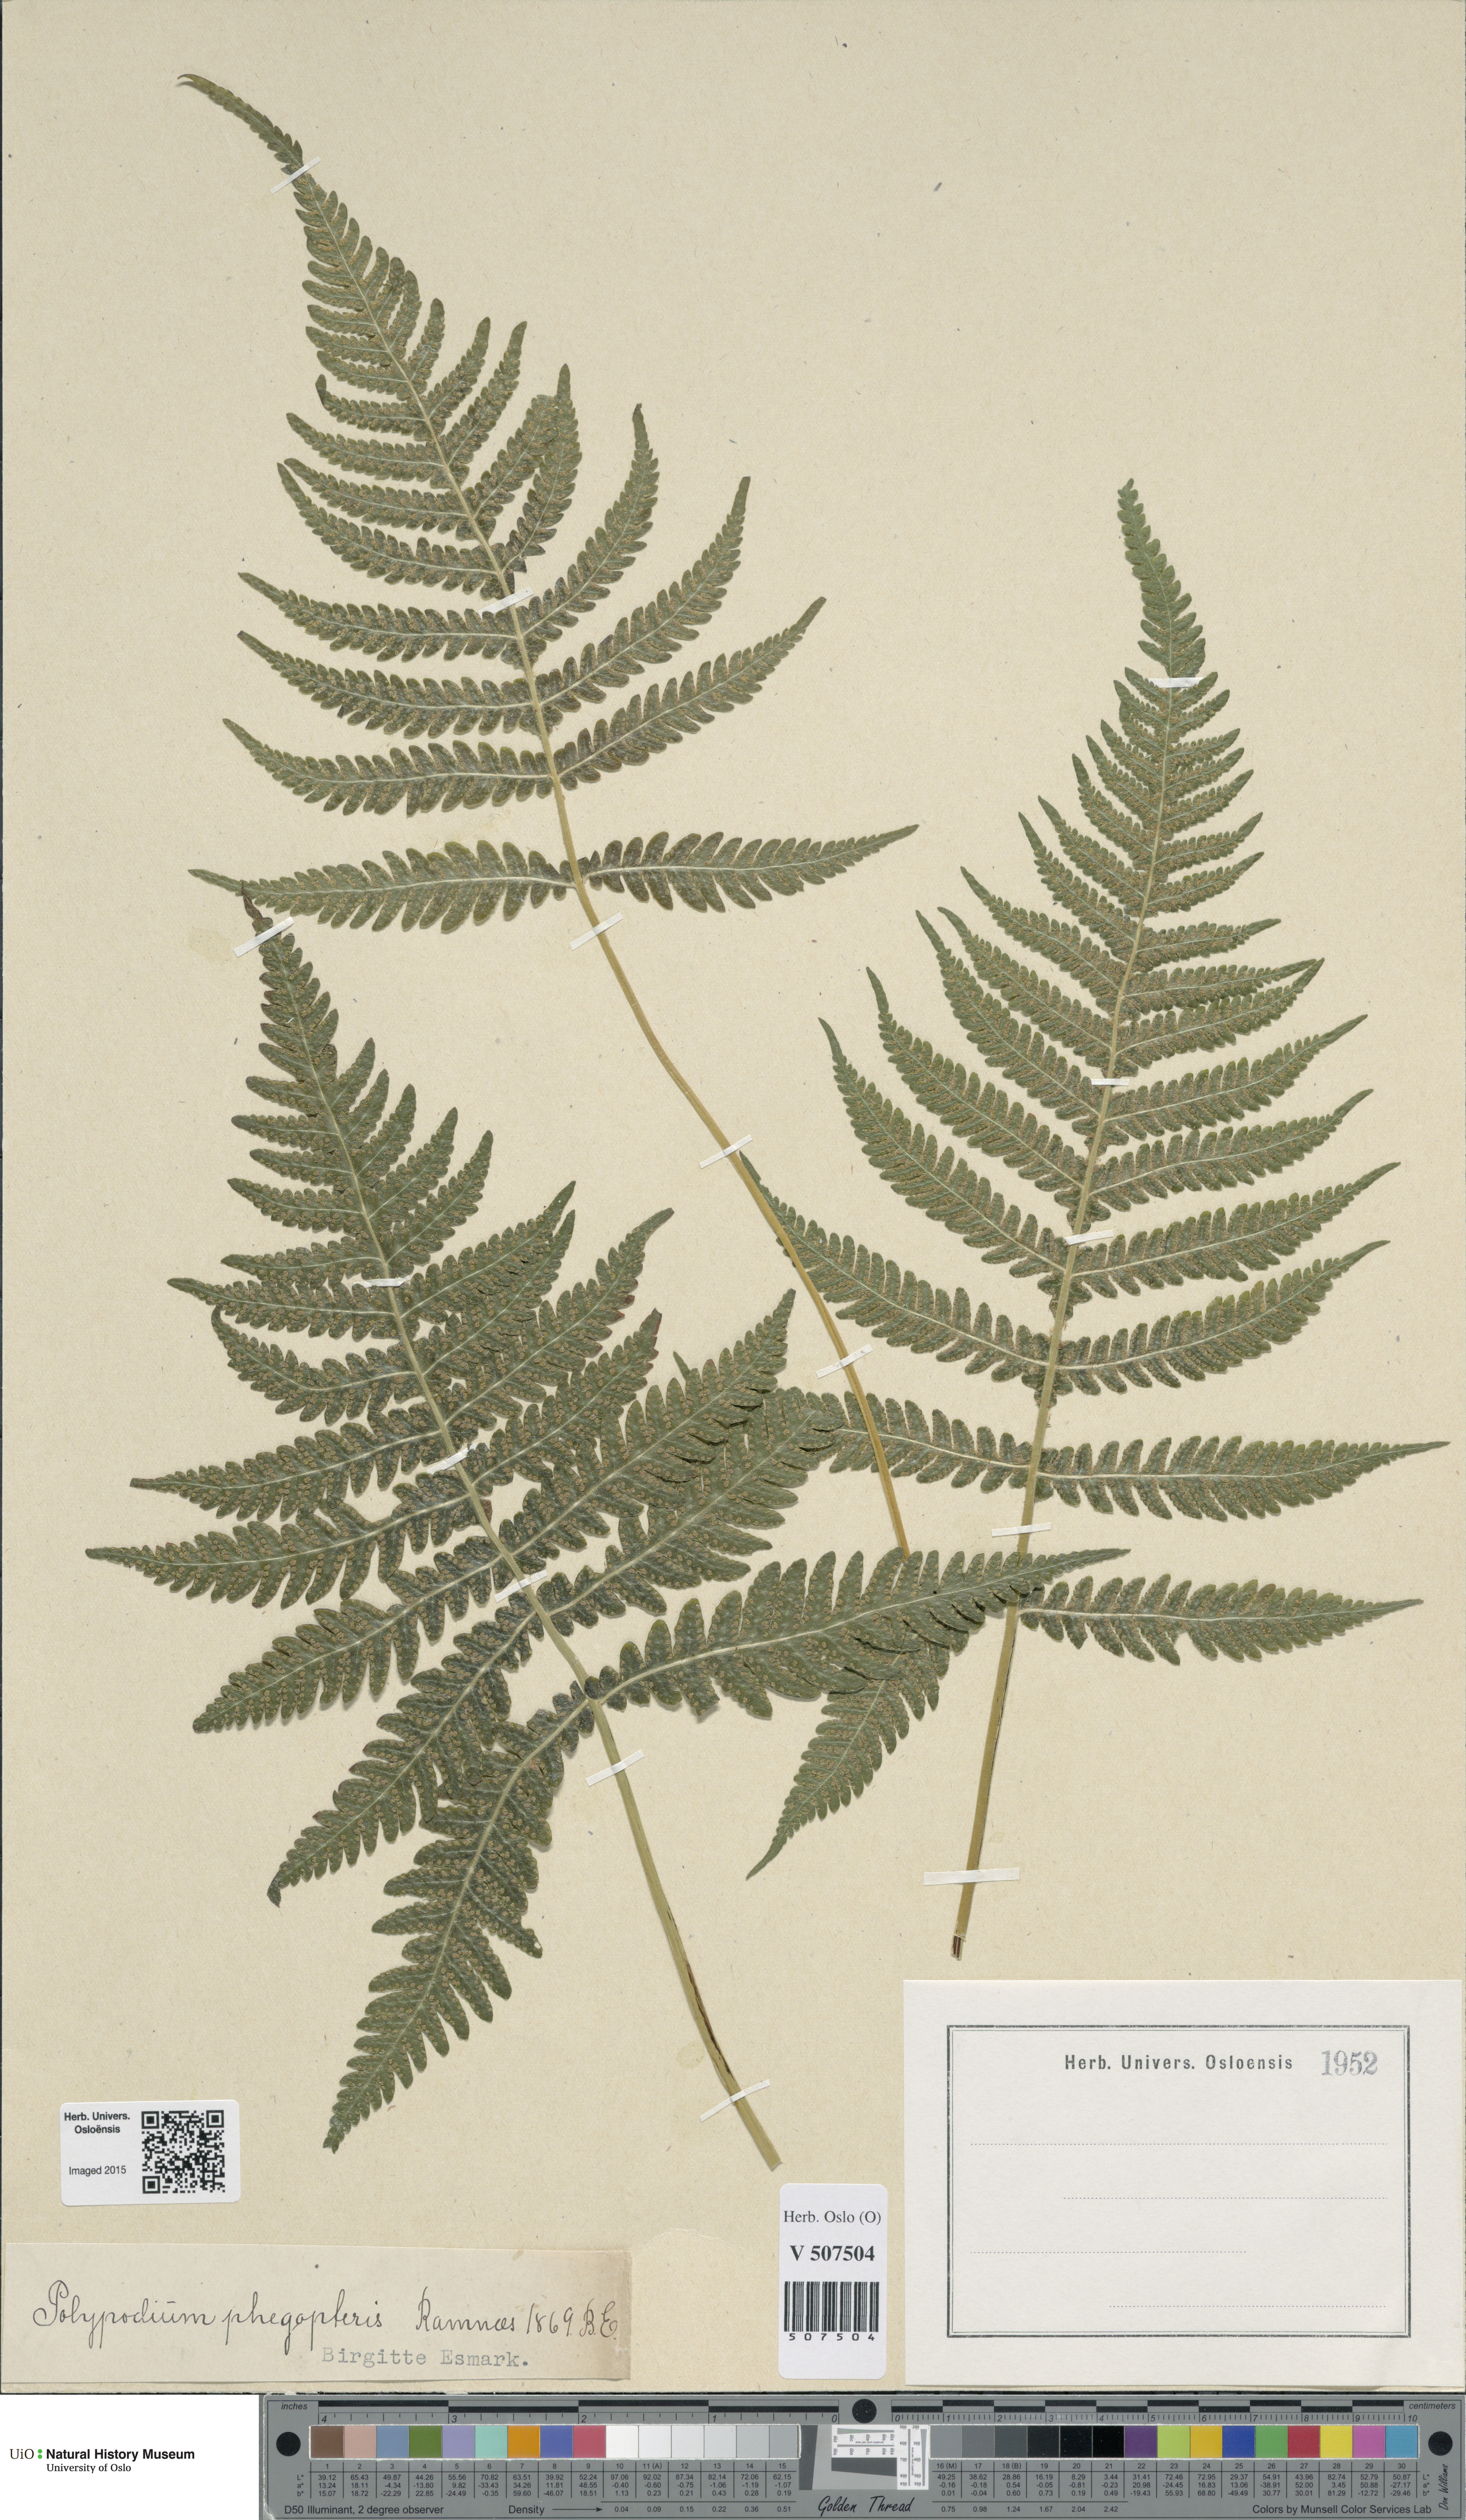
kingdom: Plantae
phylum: Tracheophyta
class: Polypodiopsida
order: Polypodiales
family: Thelypteridaceae
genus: Phegopteris
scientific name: Phegopteris connectilis
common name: Beech fern
